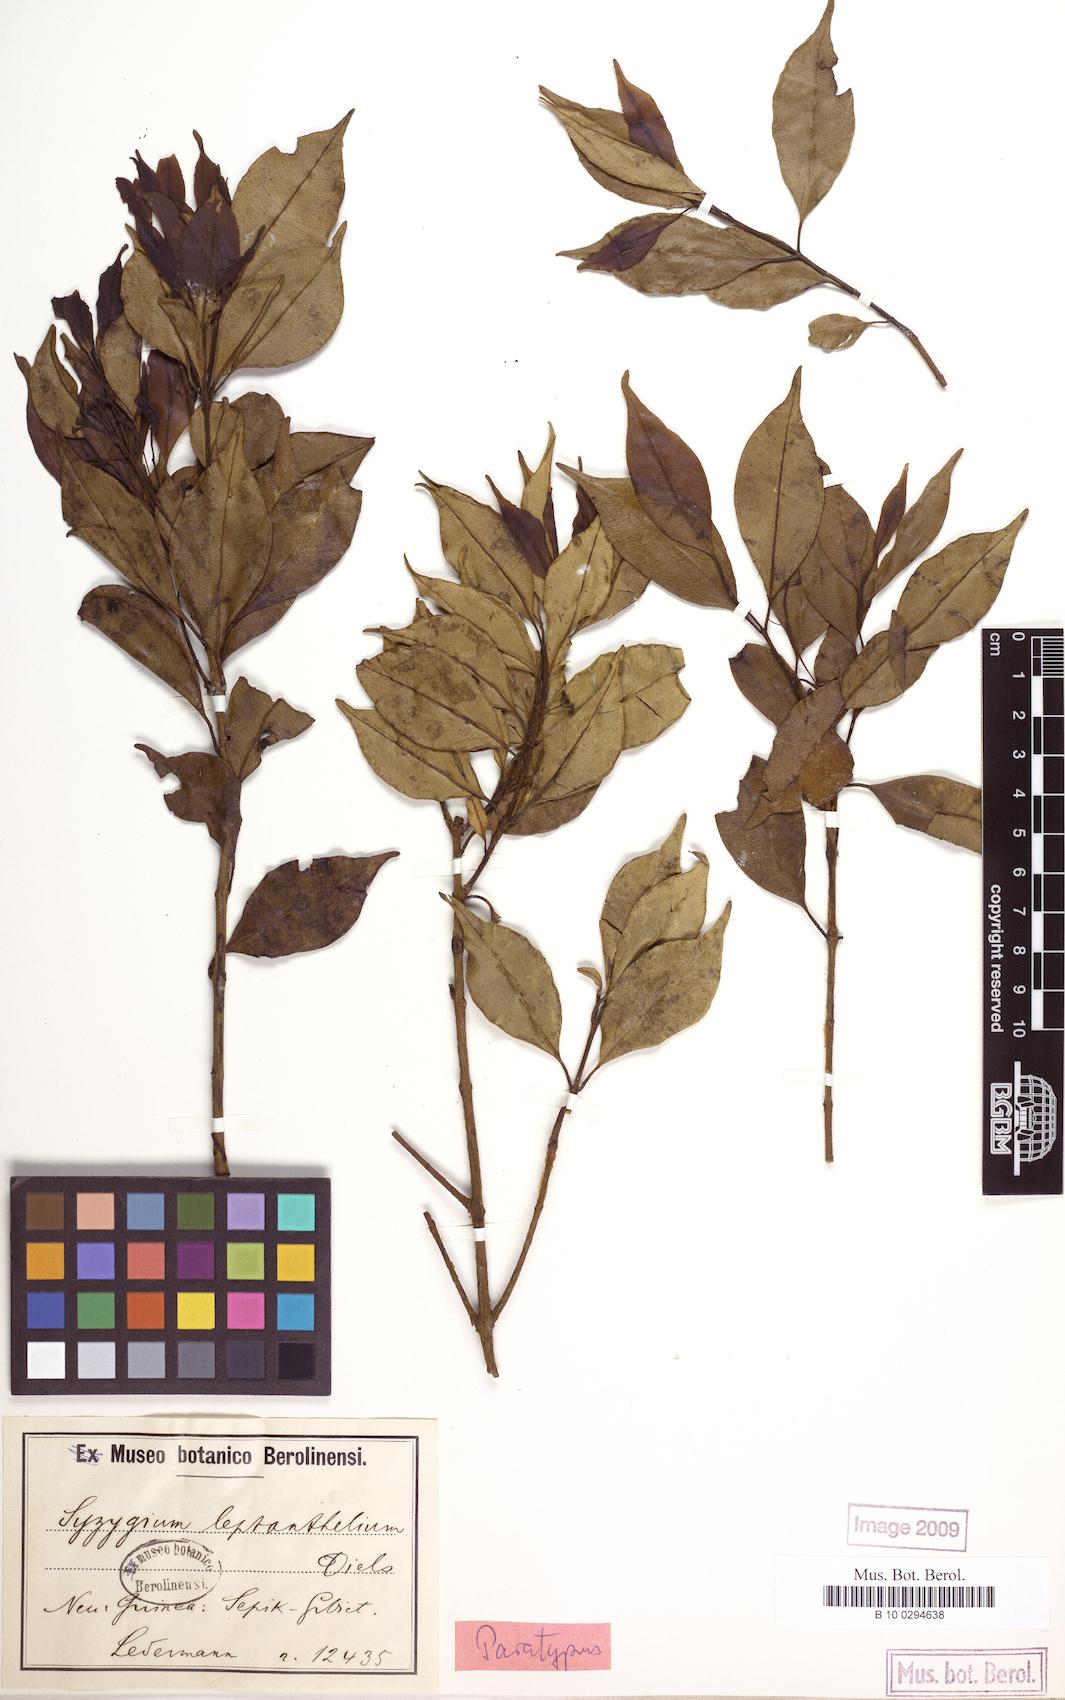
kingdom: Plantae
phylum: Tracheophyta
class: Magnoliopsida
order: Myrtales
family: Myrtaceae
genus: Syzygium
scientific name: Syzygium plumeum
